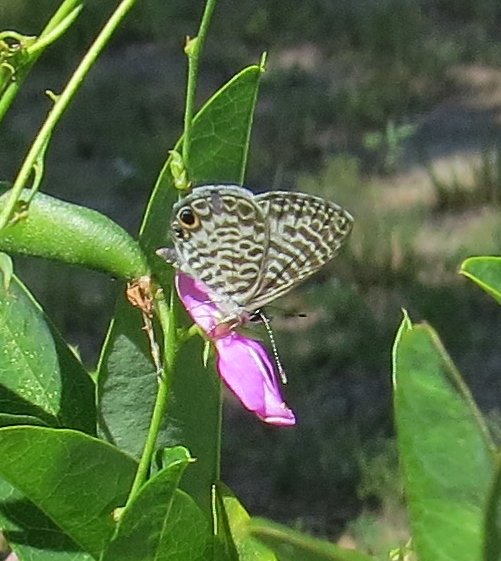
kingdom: Animalia
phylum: Arthropoda
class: Insecta
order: Lepidoptera
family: Lycaenidae
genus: Leptotes
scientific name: Leptotes cassius
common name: Cassius Blue
